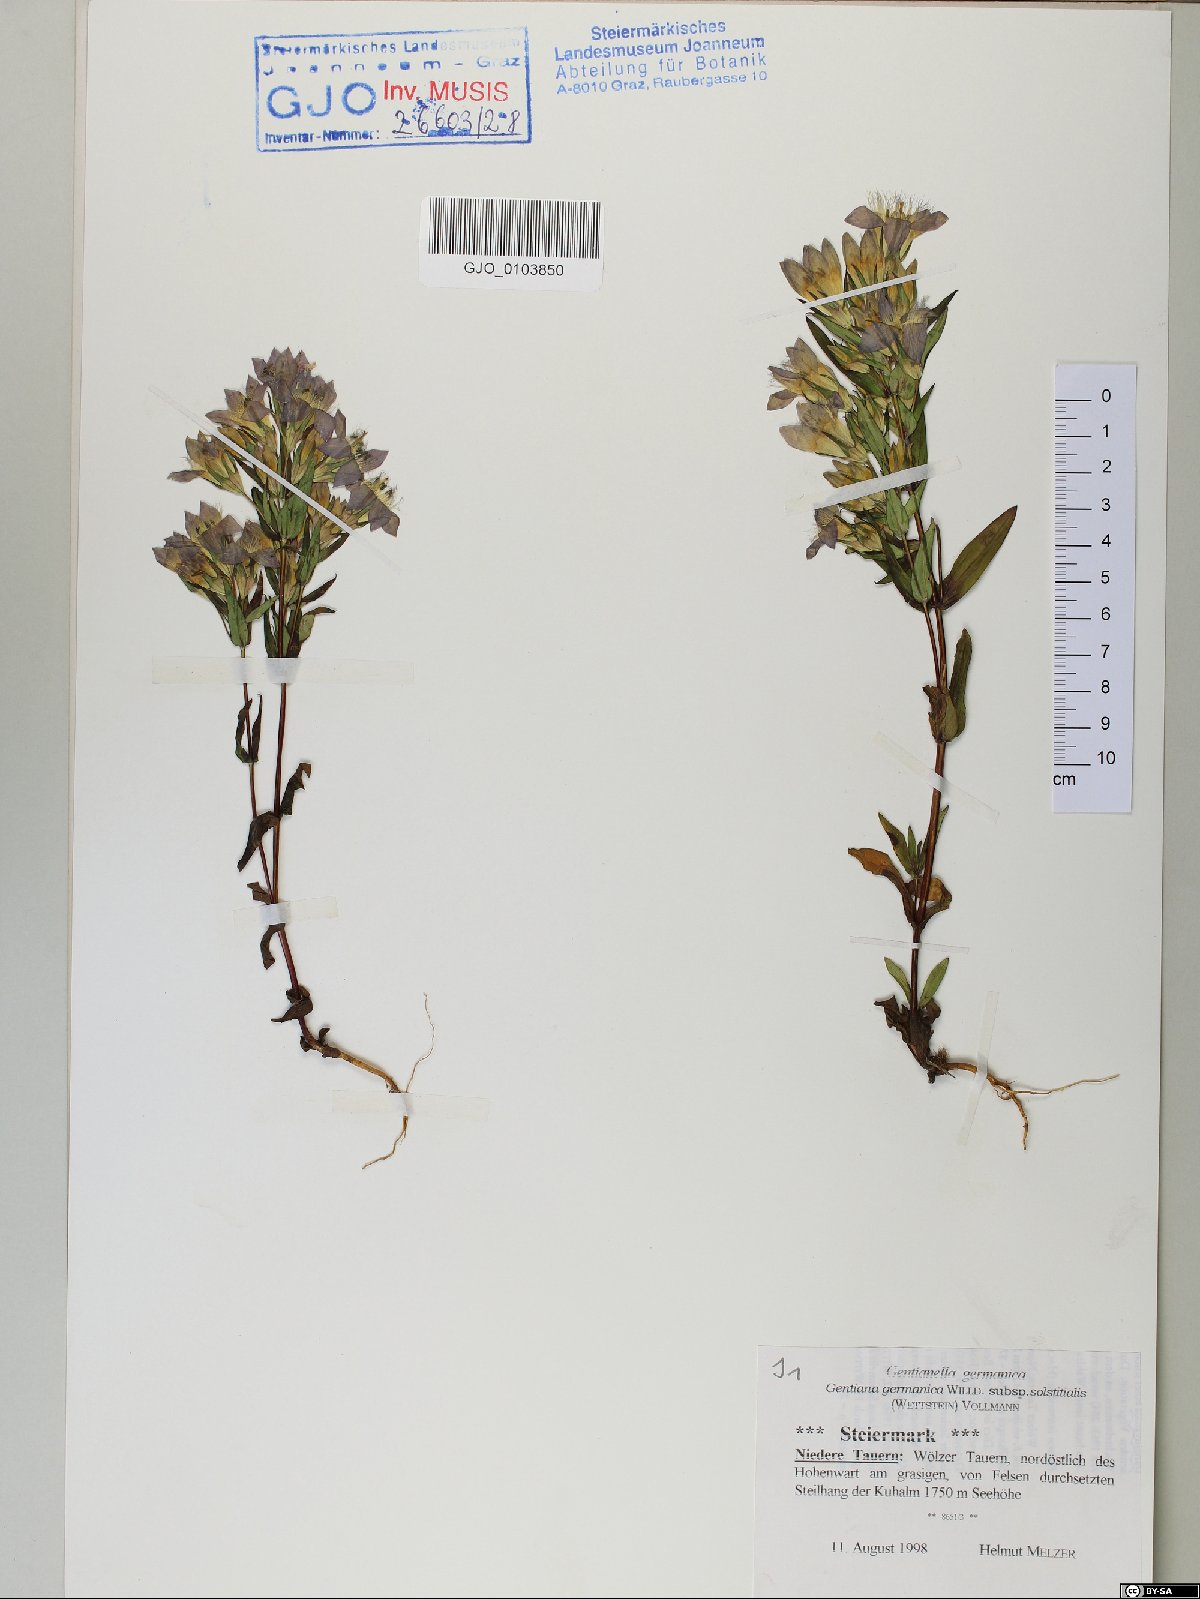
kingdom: Plantae
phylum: Tracheophyta
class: Magnoliopsida
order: Gentianales
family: Gentianaceae
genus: Gentianella
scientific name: Gentianella germanica
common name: Chiltern-gentian
